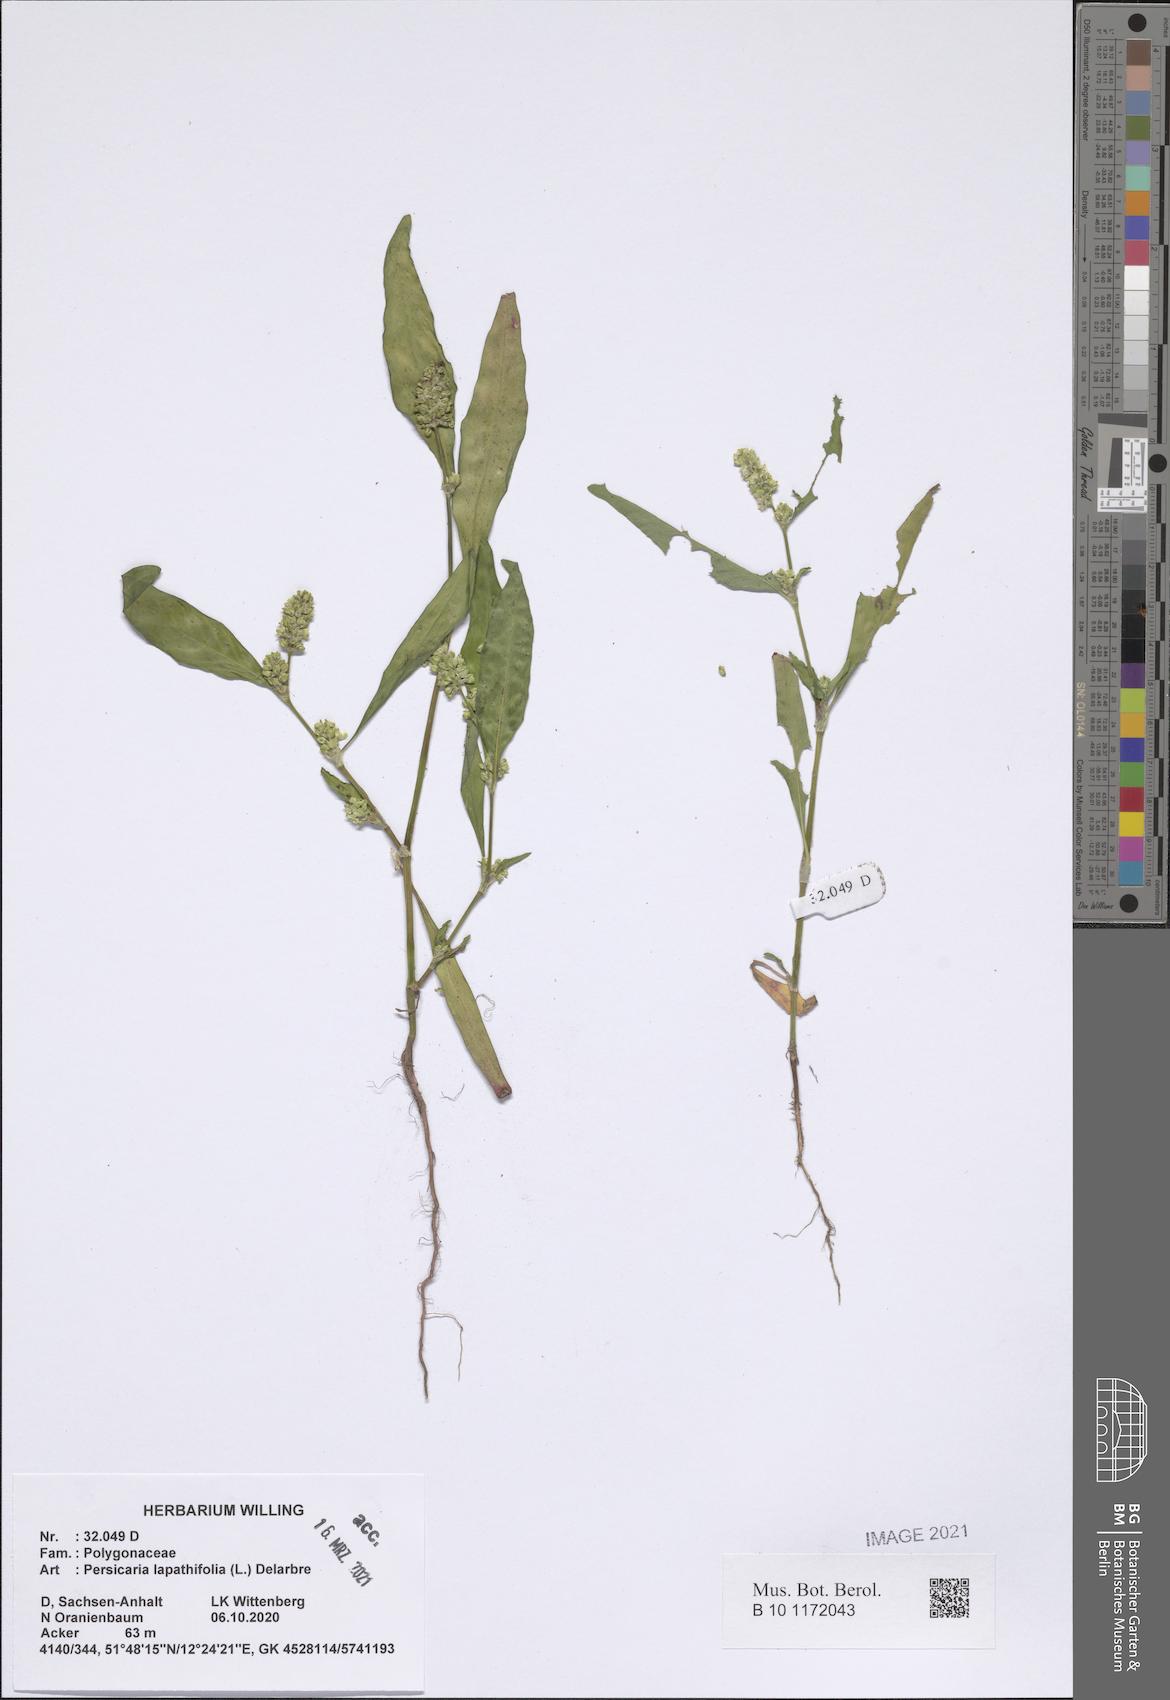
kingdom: Plantae
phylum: Tracheophyta
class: Magnoliopsida
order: Caryophyllales
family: Polygonaceae
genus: Persicaria
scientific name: Persicaria lapathifolia
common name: Curlytop knotweed
